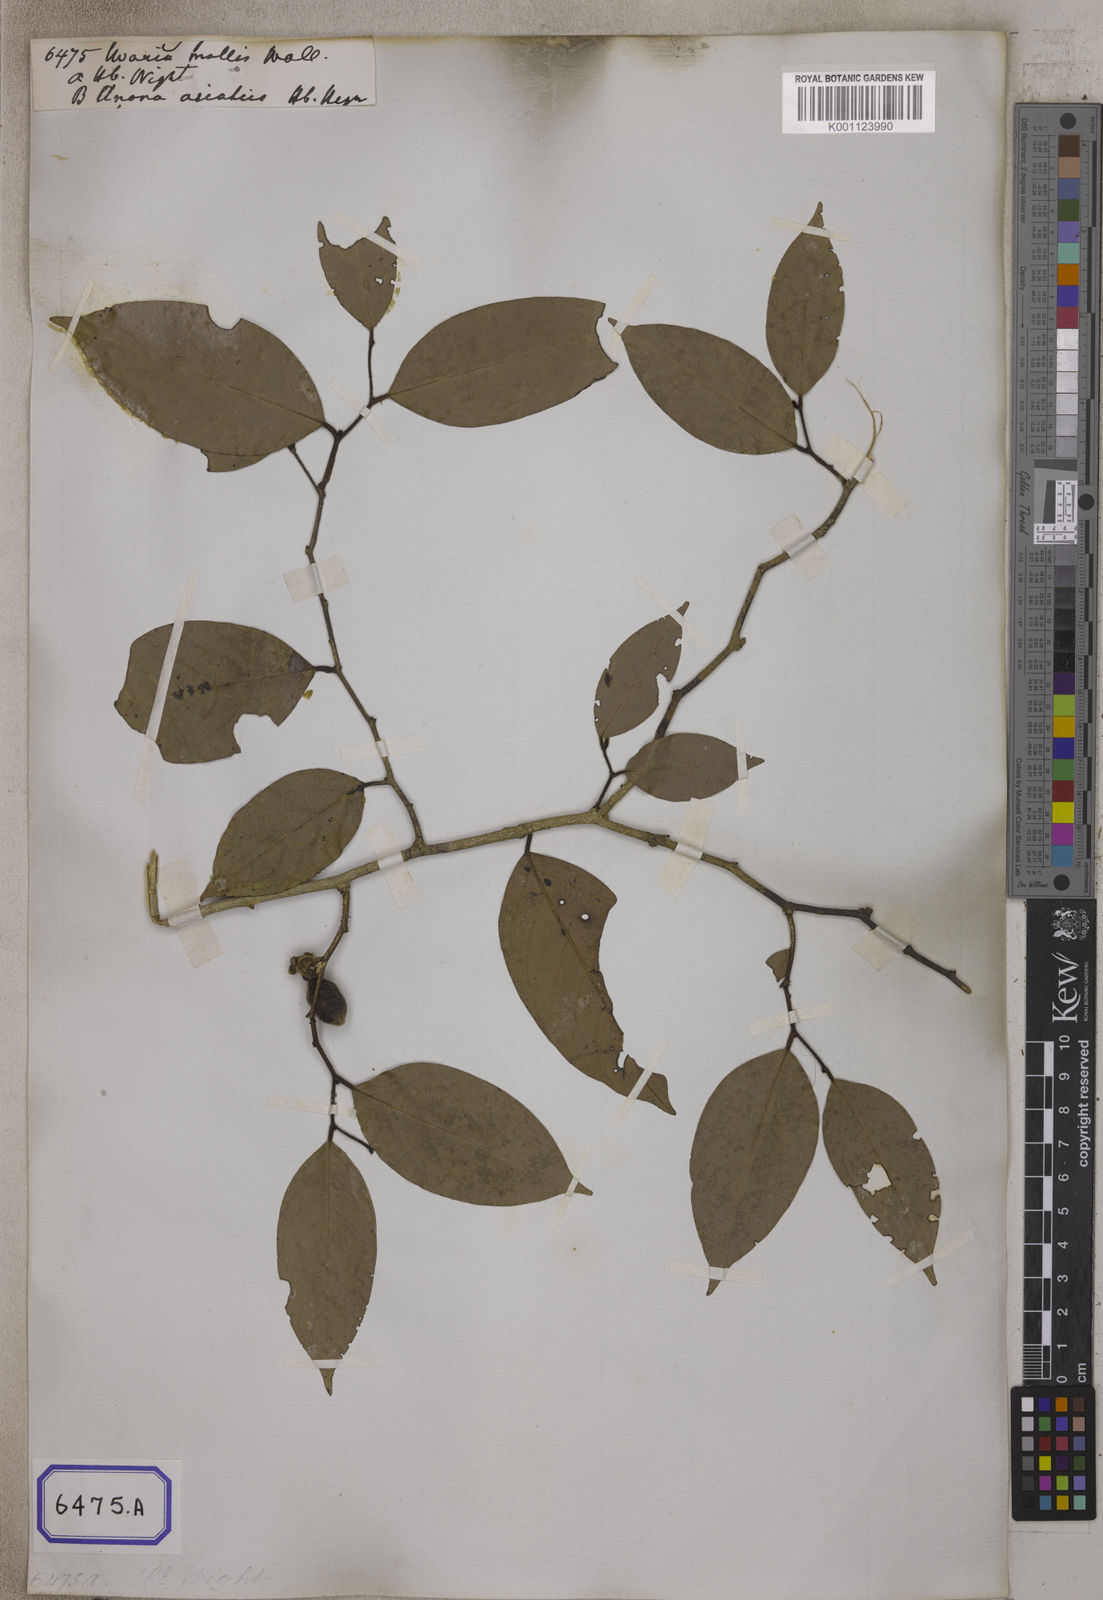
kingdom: Plantae
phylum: Tracheophyta
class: Magnoliopsida
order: Magnoliales
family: Annonaceae
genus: Meiogyne
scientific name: Meiogyne pannosa
